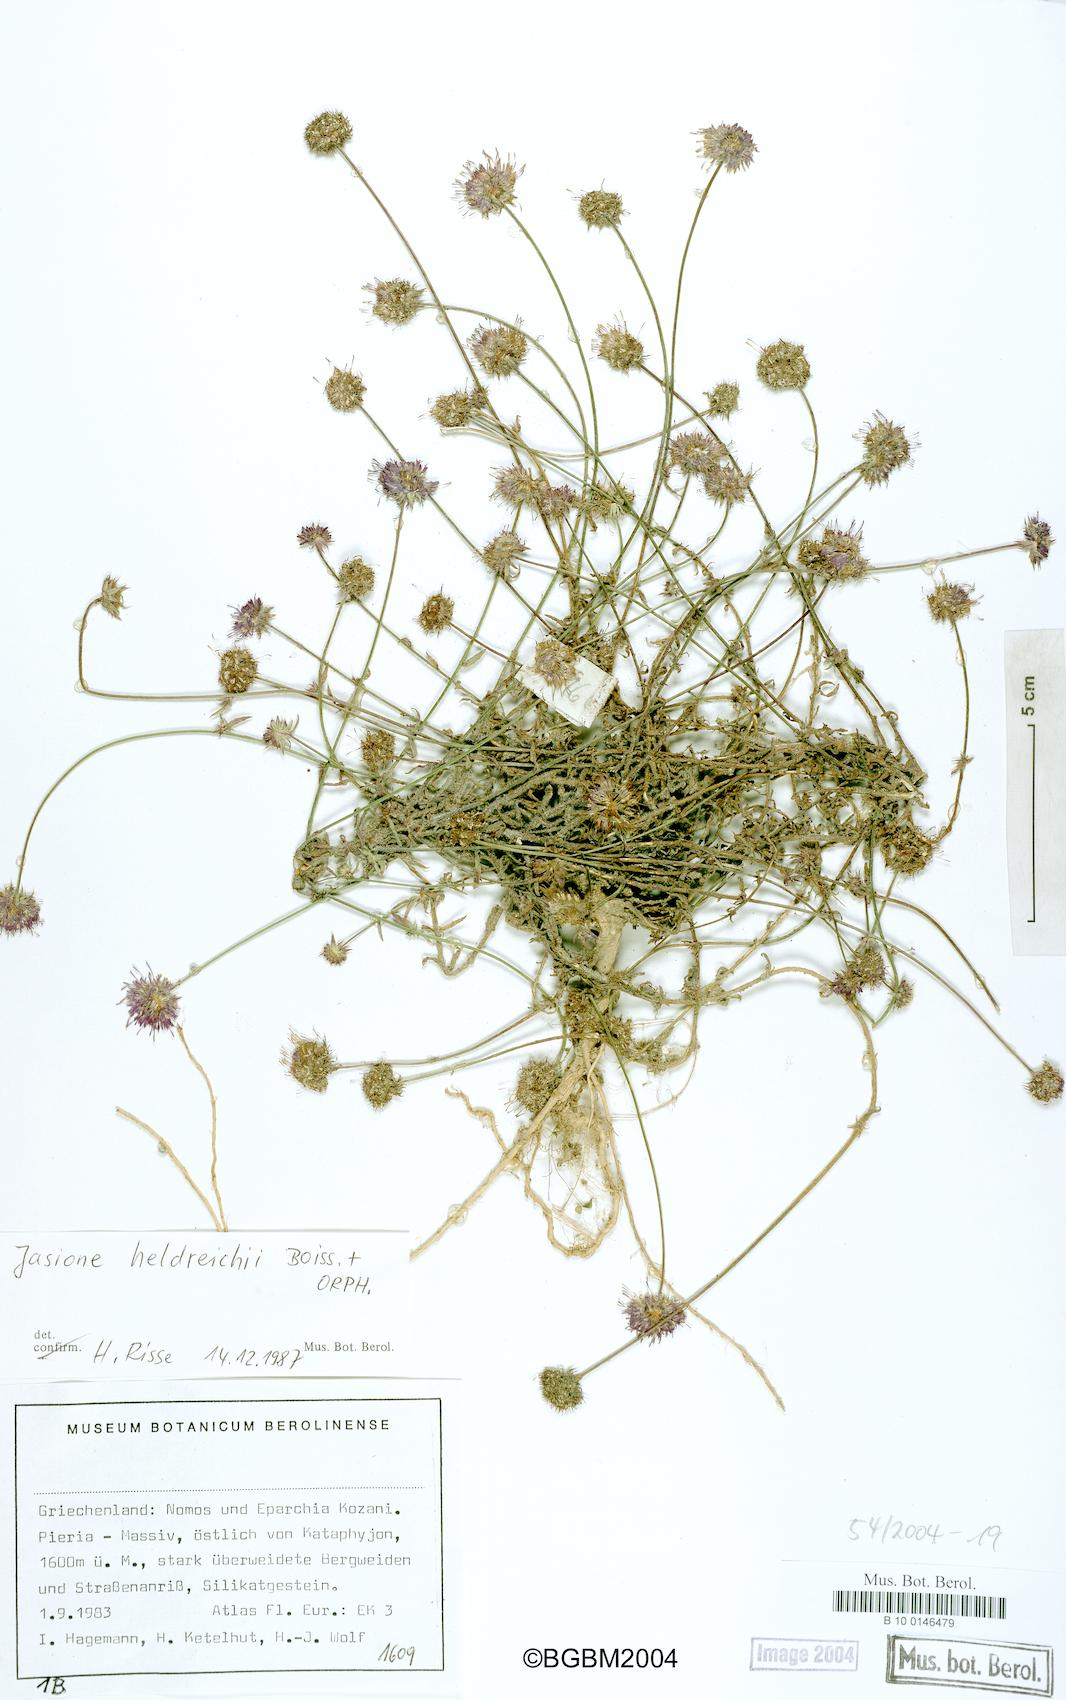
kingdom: Plantae
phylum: Tracheophyta
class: Magnoliopsida
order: Asterales
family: Campanulaceae
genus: Jasione
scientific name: Jasione heldreichii
